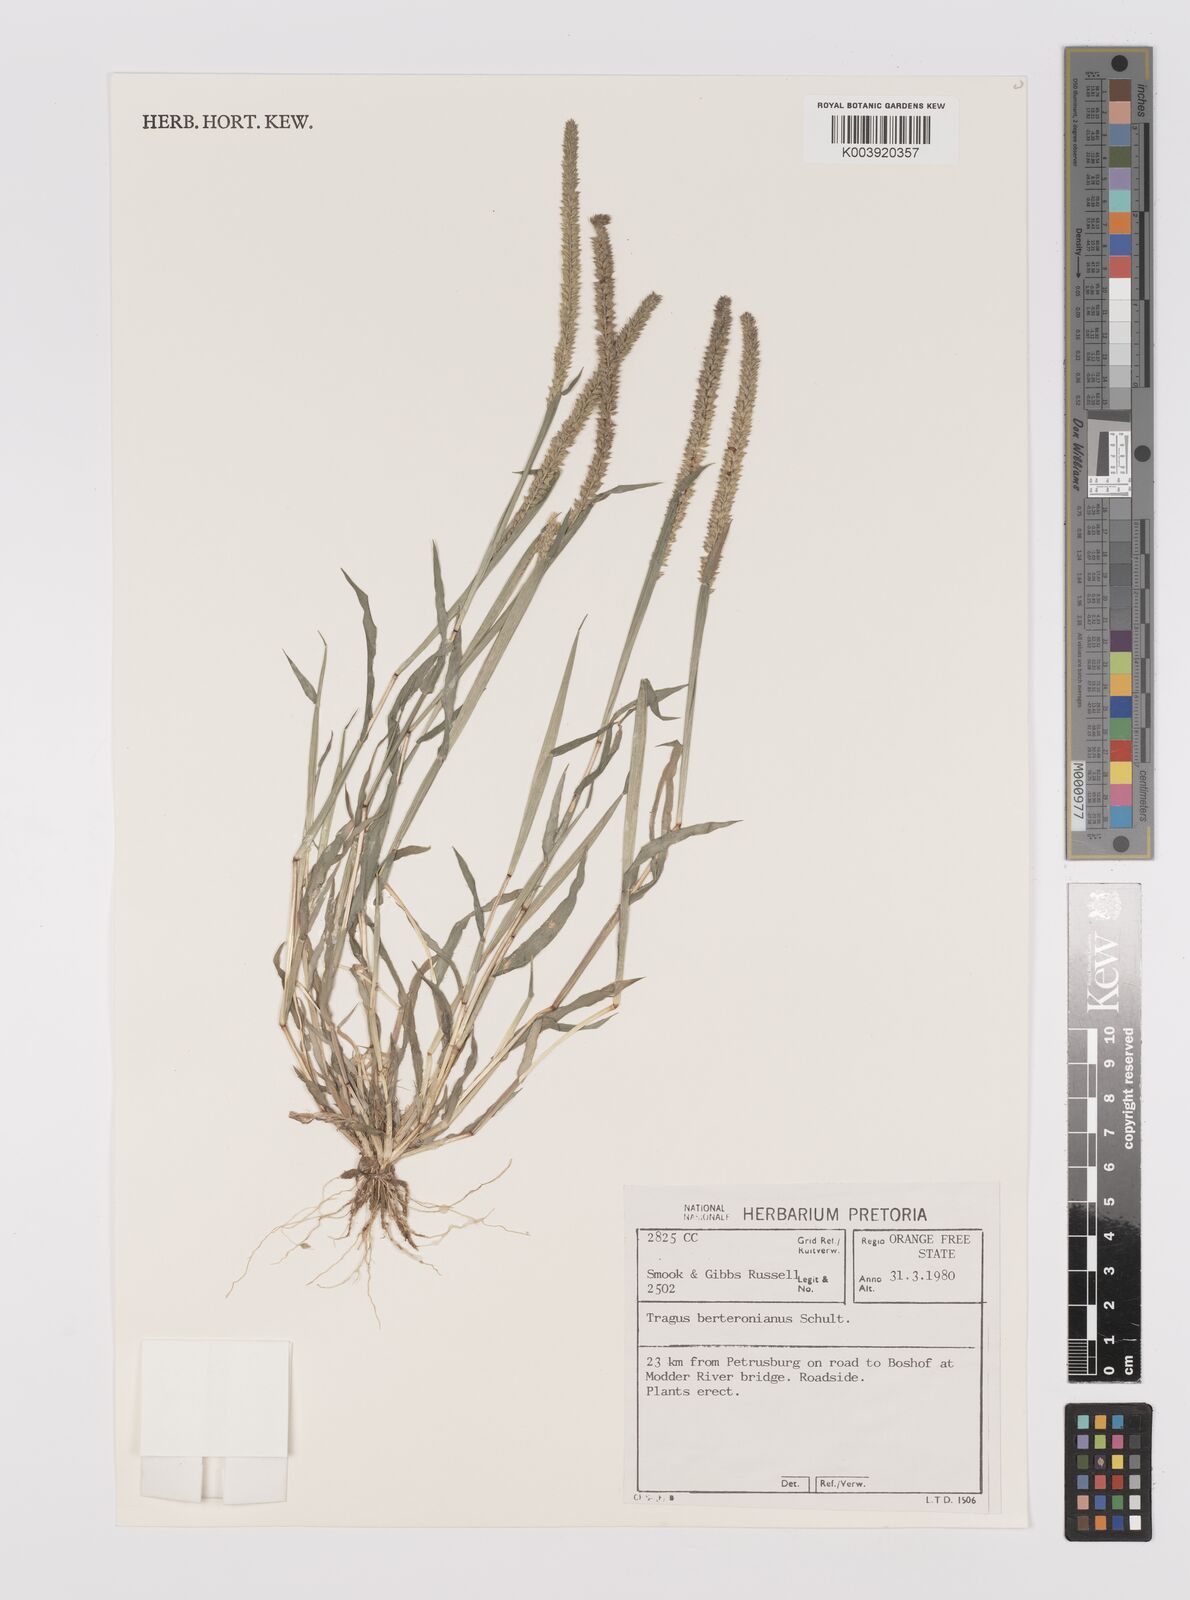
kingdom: Plantae
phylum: Tracheophyta
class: Liliopsida
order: Poales
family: Poaceae
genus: Tragus
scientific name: Tragus berteronianus
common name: African bur-grass
